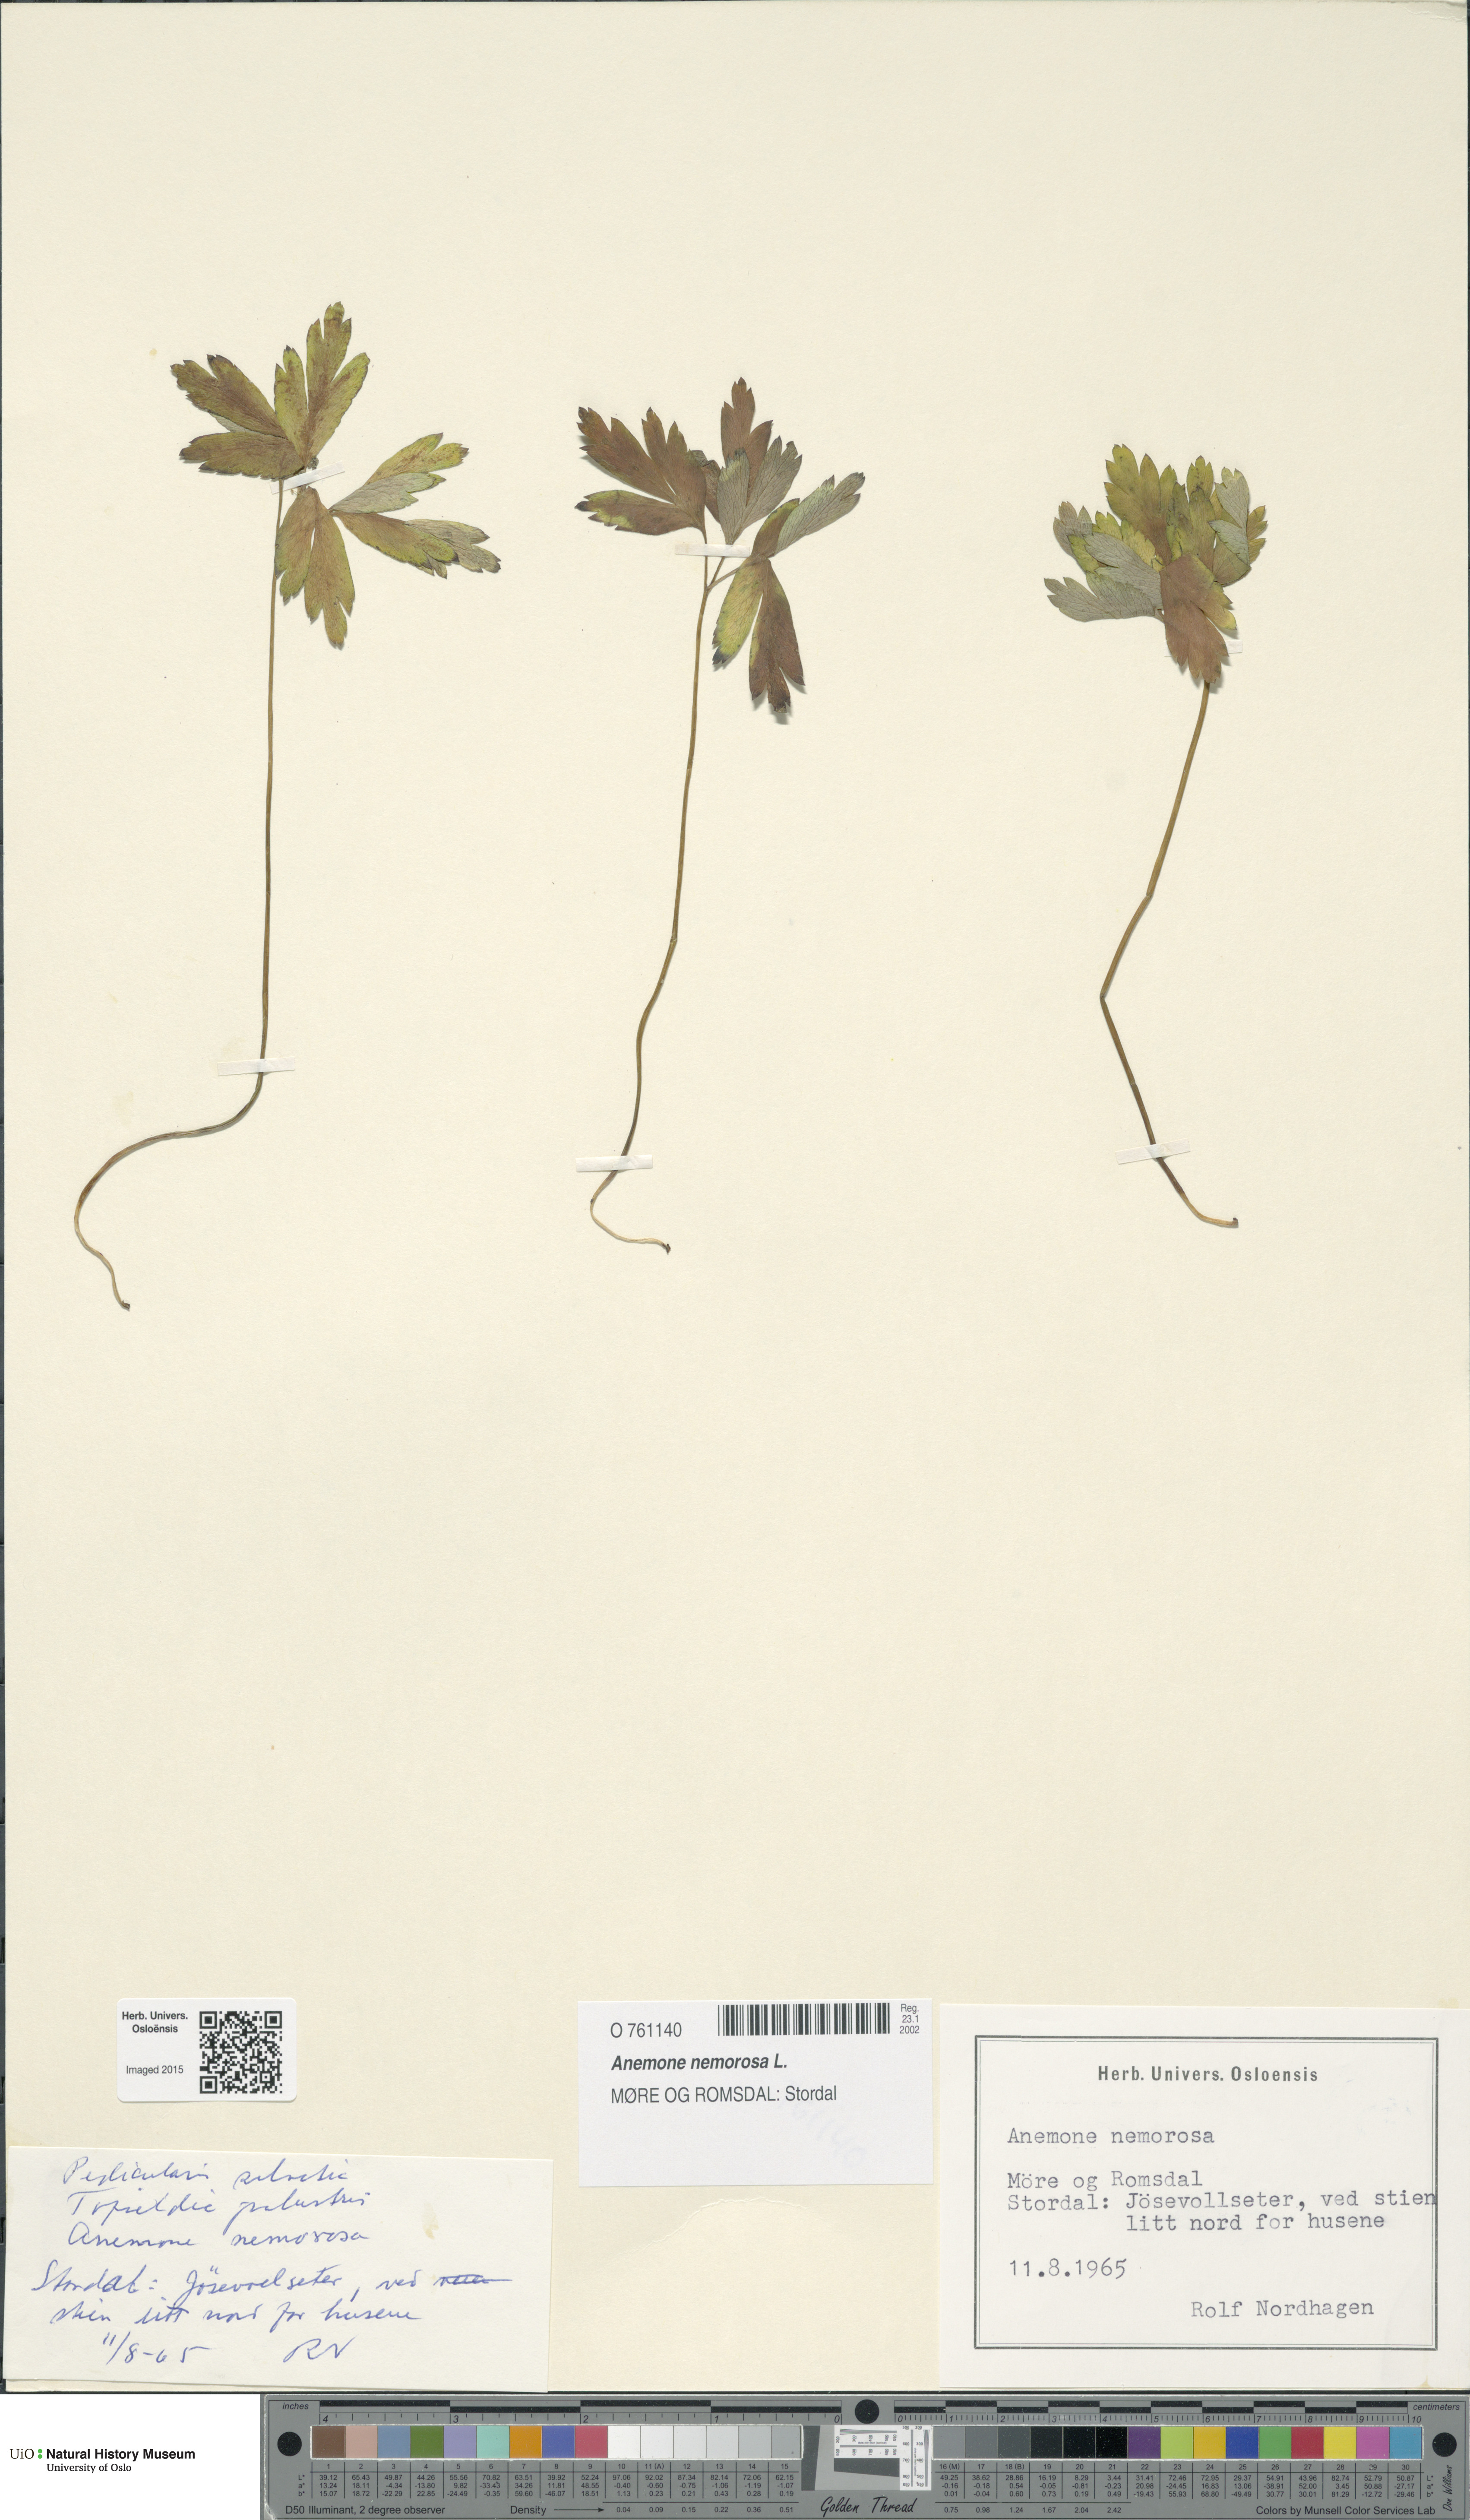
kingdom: Plantae
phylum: Tracheophyta
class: Magnoliopsida
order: Ranunculales
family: Ranunculaceae
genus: Anemone
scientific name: Anemone nemorosa
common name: Wood anemone
